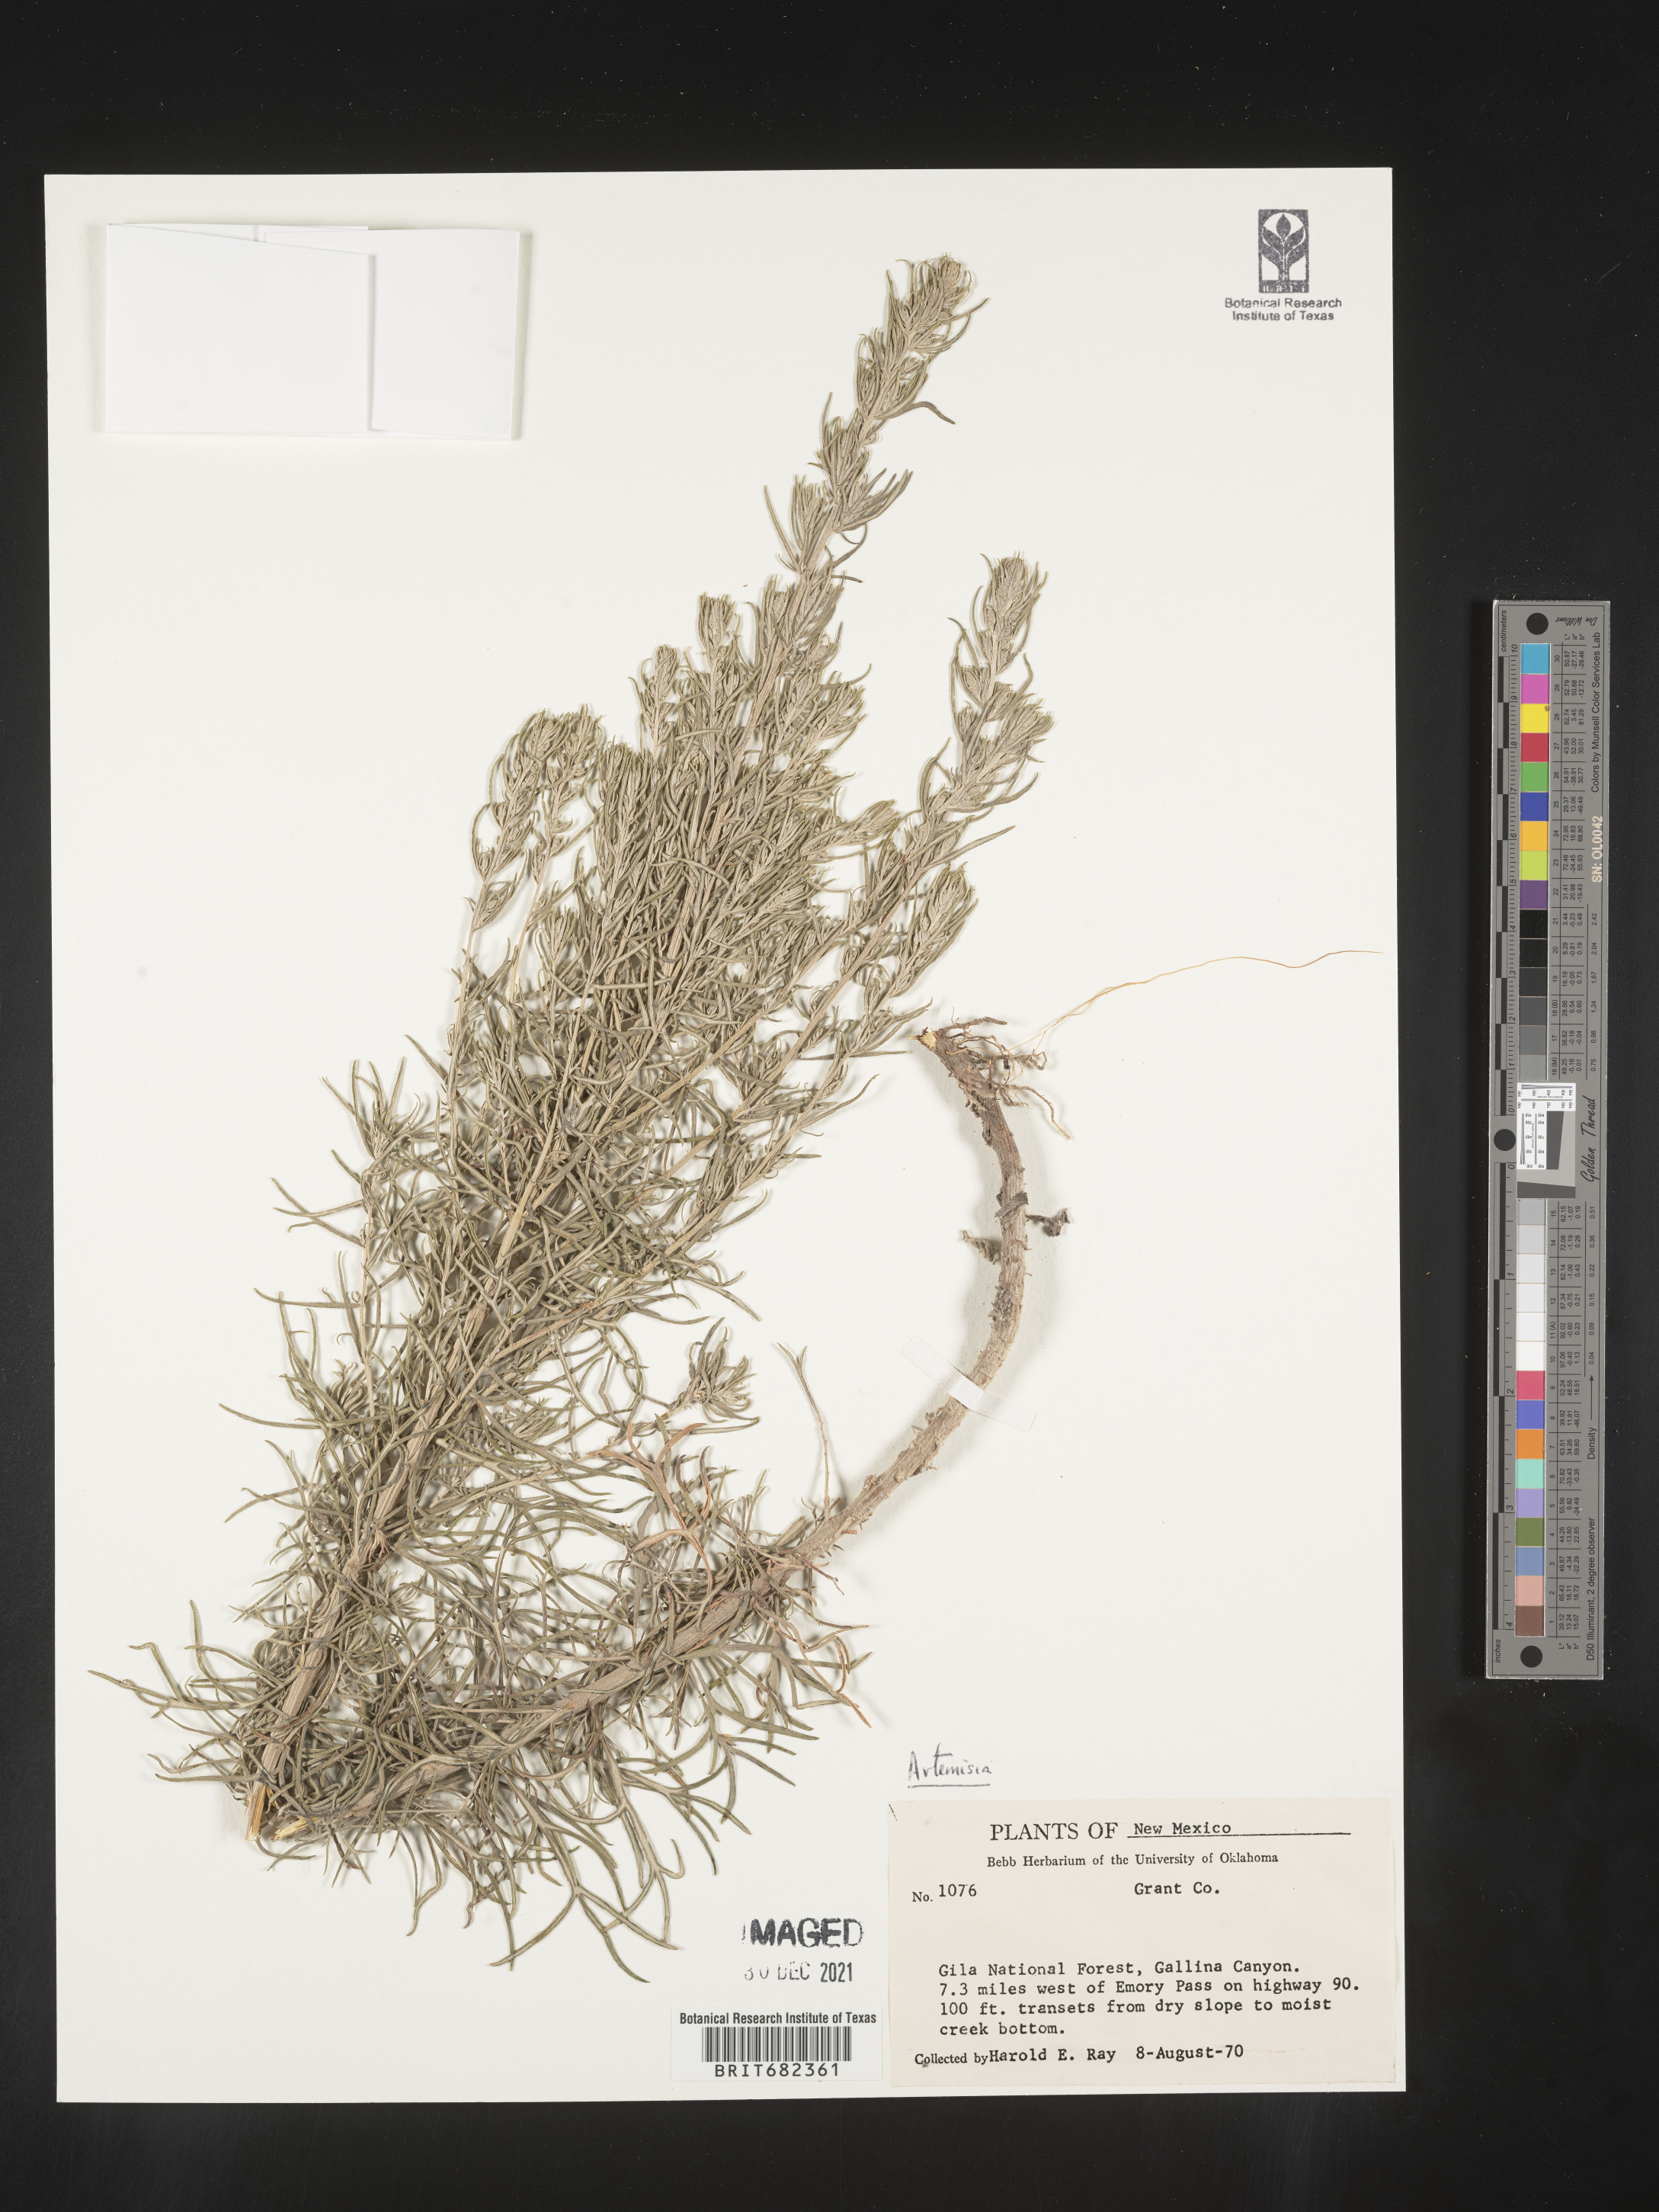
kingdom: Plantae
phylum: Tracheophyta
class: Magnoliopsida
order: Asterales
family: Asteraceae
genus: Artemisia
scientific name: Artemisia
